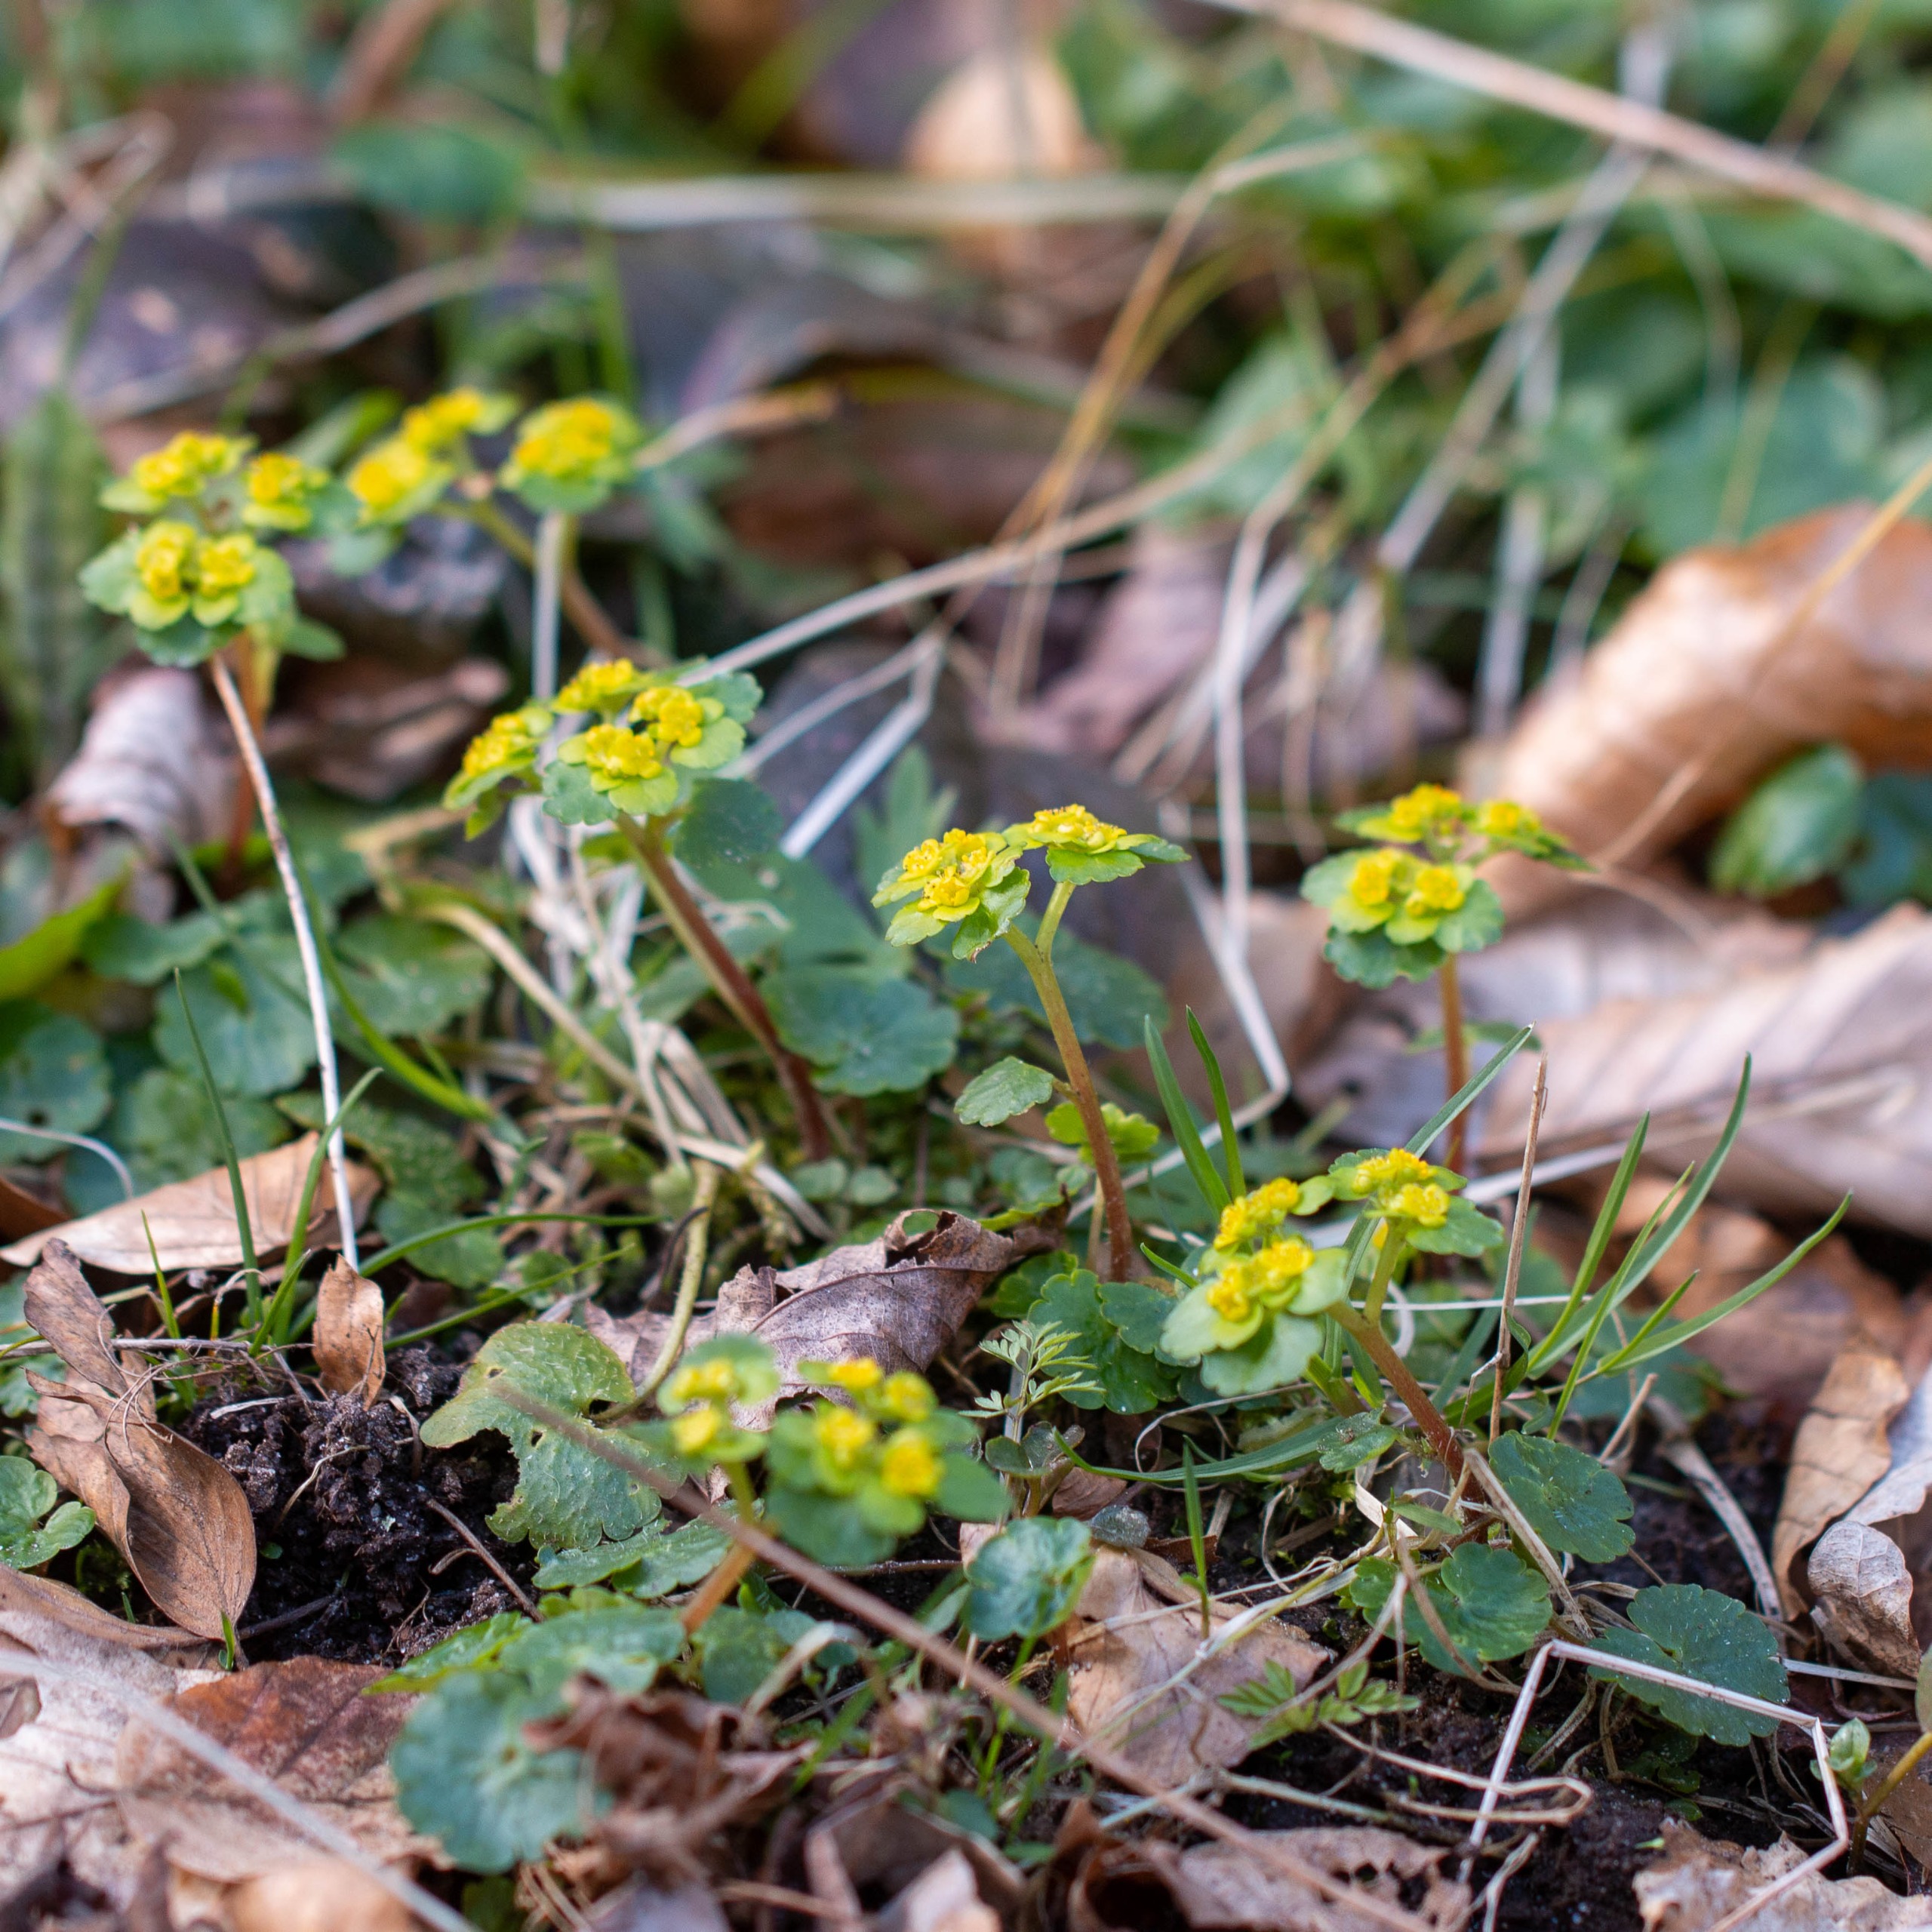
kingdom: Plantae
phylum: Tracheophyta
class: Magnoliopsida
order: Saxifragales
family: Saxifragaceae
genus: Chrysosplenium
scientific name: Chrysosplenium alternifolium
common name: Almindelig milturt
